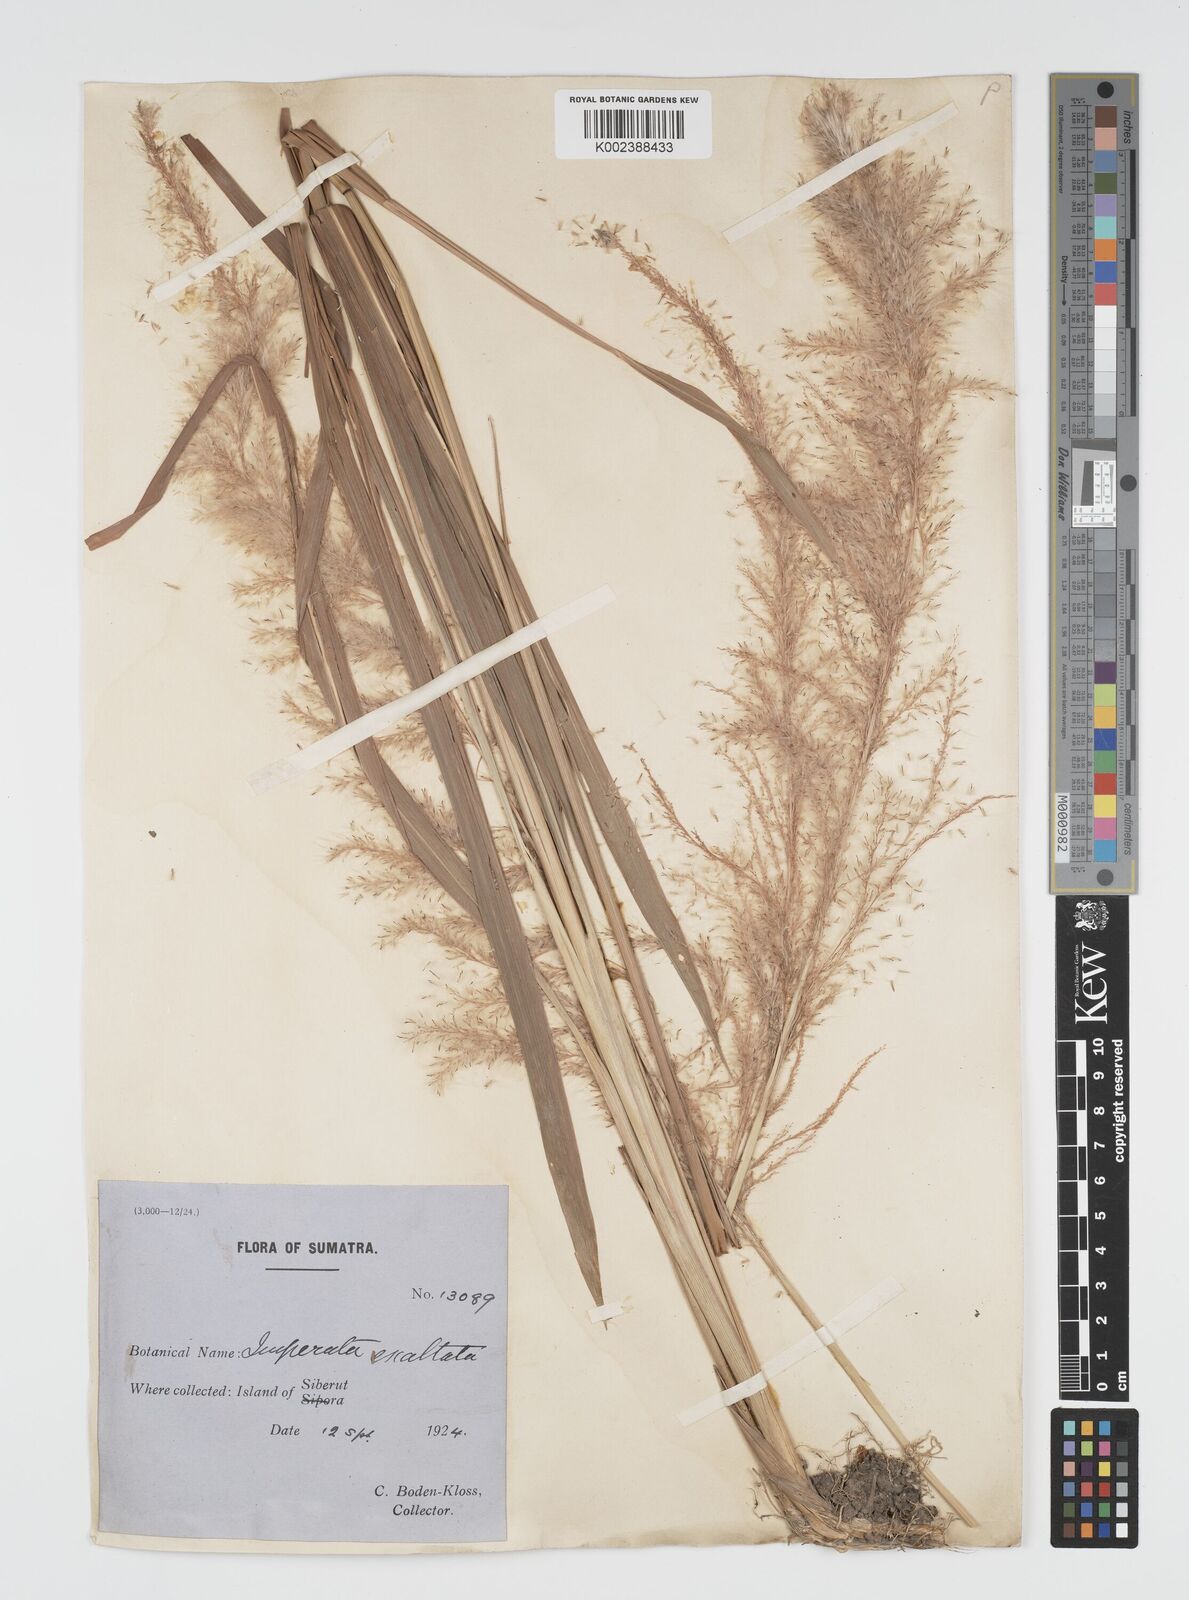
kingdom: Plantae
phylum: Tracheophyta
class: Liliopsida
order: Poales
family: Poaceae
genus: Imperata
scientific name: Imperata conferta
